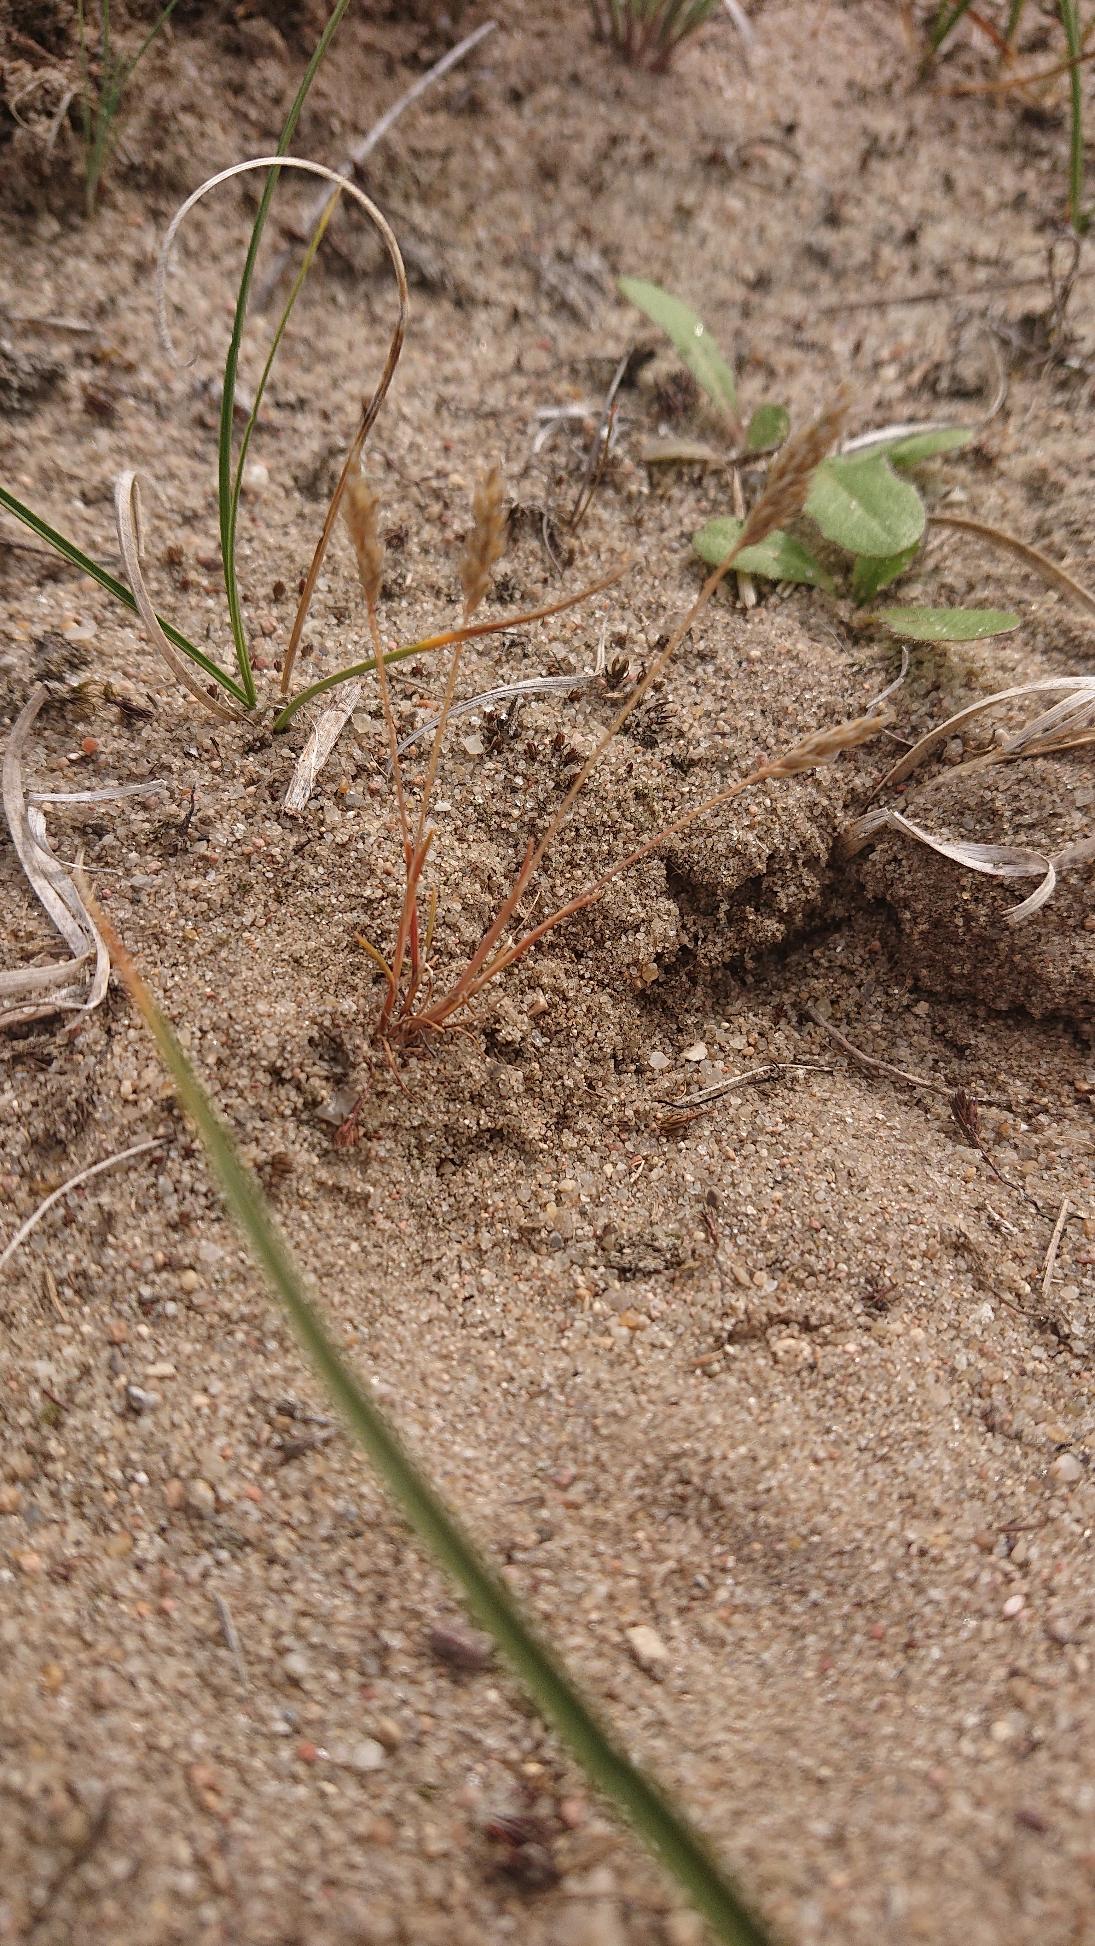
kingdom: Plantae
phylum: Tracheophyta
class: Liliopsida
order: Poales
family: Poaceae
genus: Aira
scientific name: Aira praecox
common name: Tidlig dværgbunke
